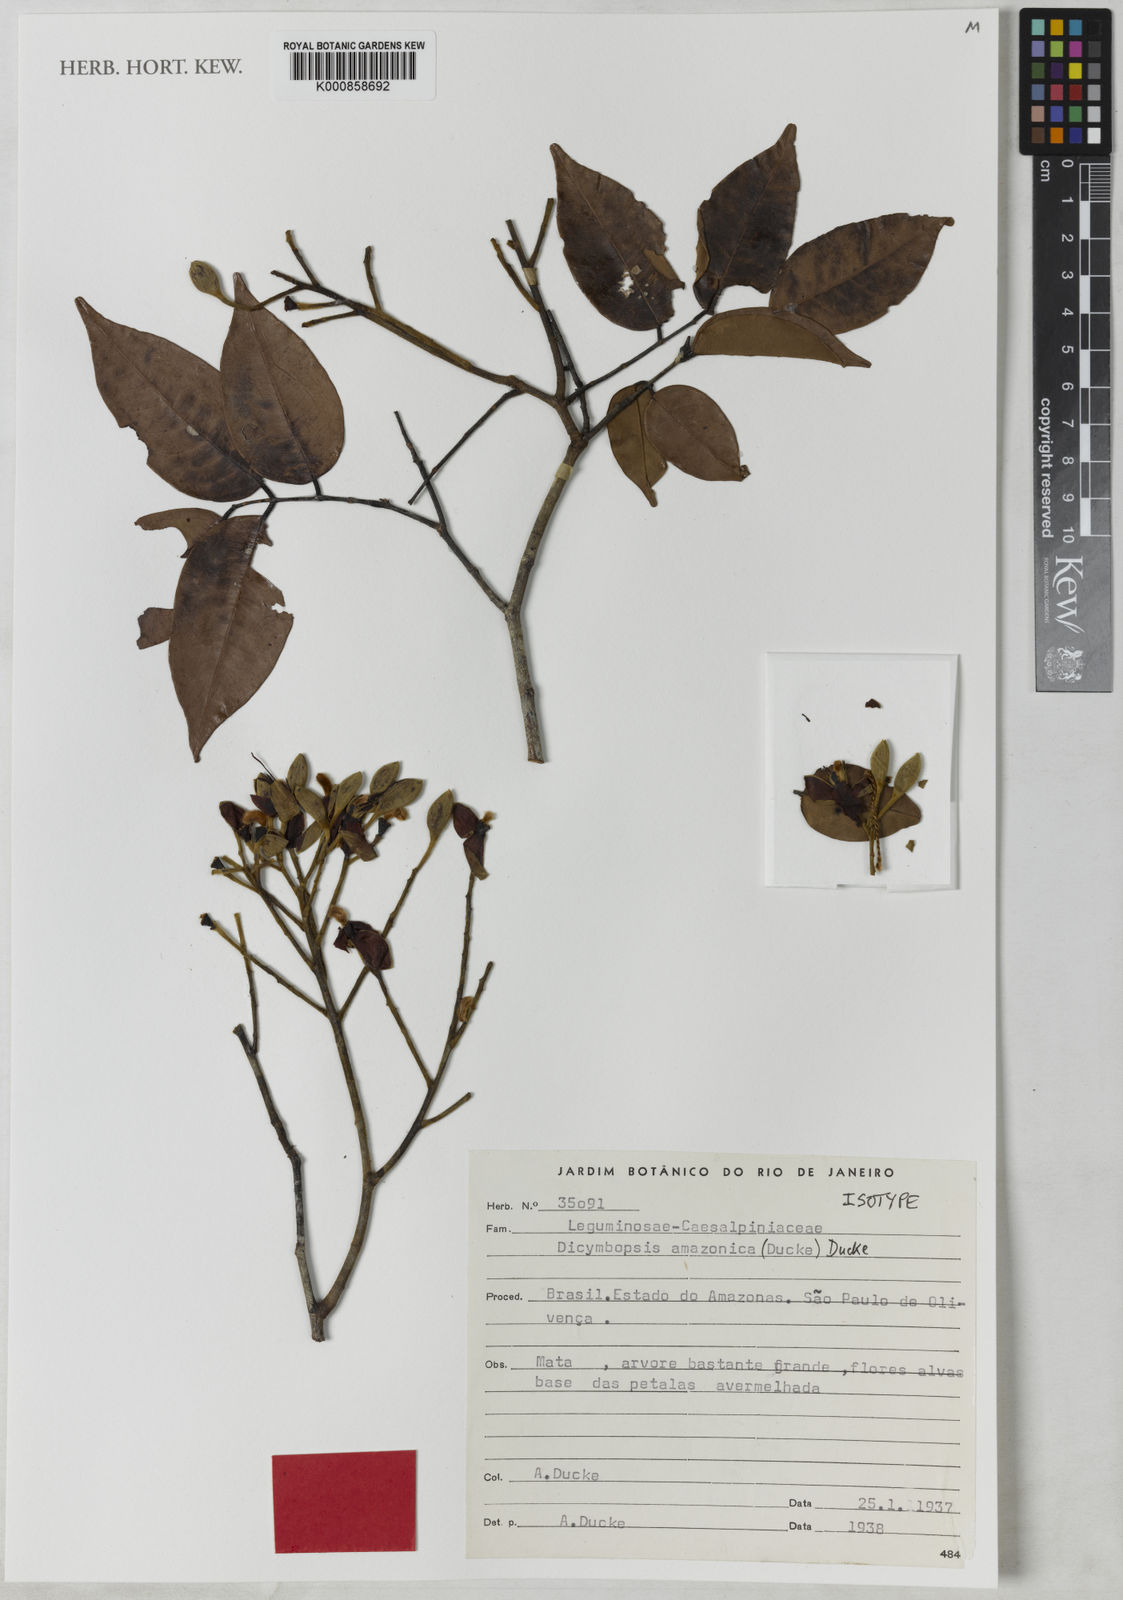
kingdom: Plantae
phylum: Tracheophyta
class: Magnoliopsida
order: Fabales
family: Fabaceae
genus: Dicymbe
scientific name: Dicymbe amazonica
